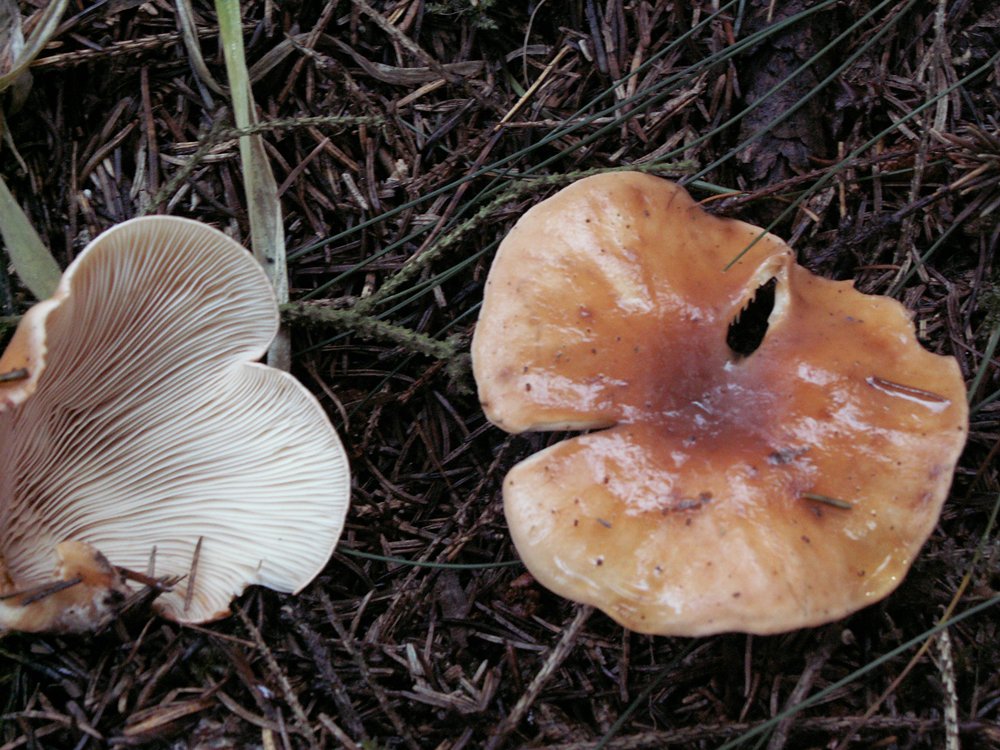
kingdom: Fungi
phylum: Basidiomycota
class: Agaricomycetes
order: Agaricales
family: Tricholomataceae
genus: Paralepista
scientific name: Paralepista flaccida
